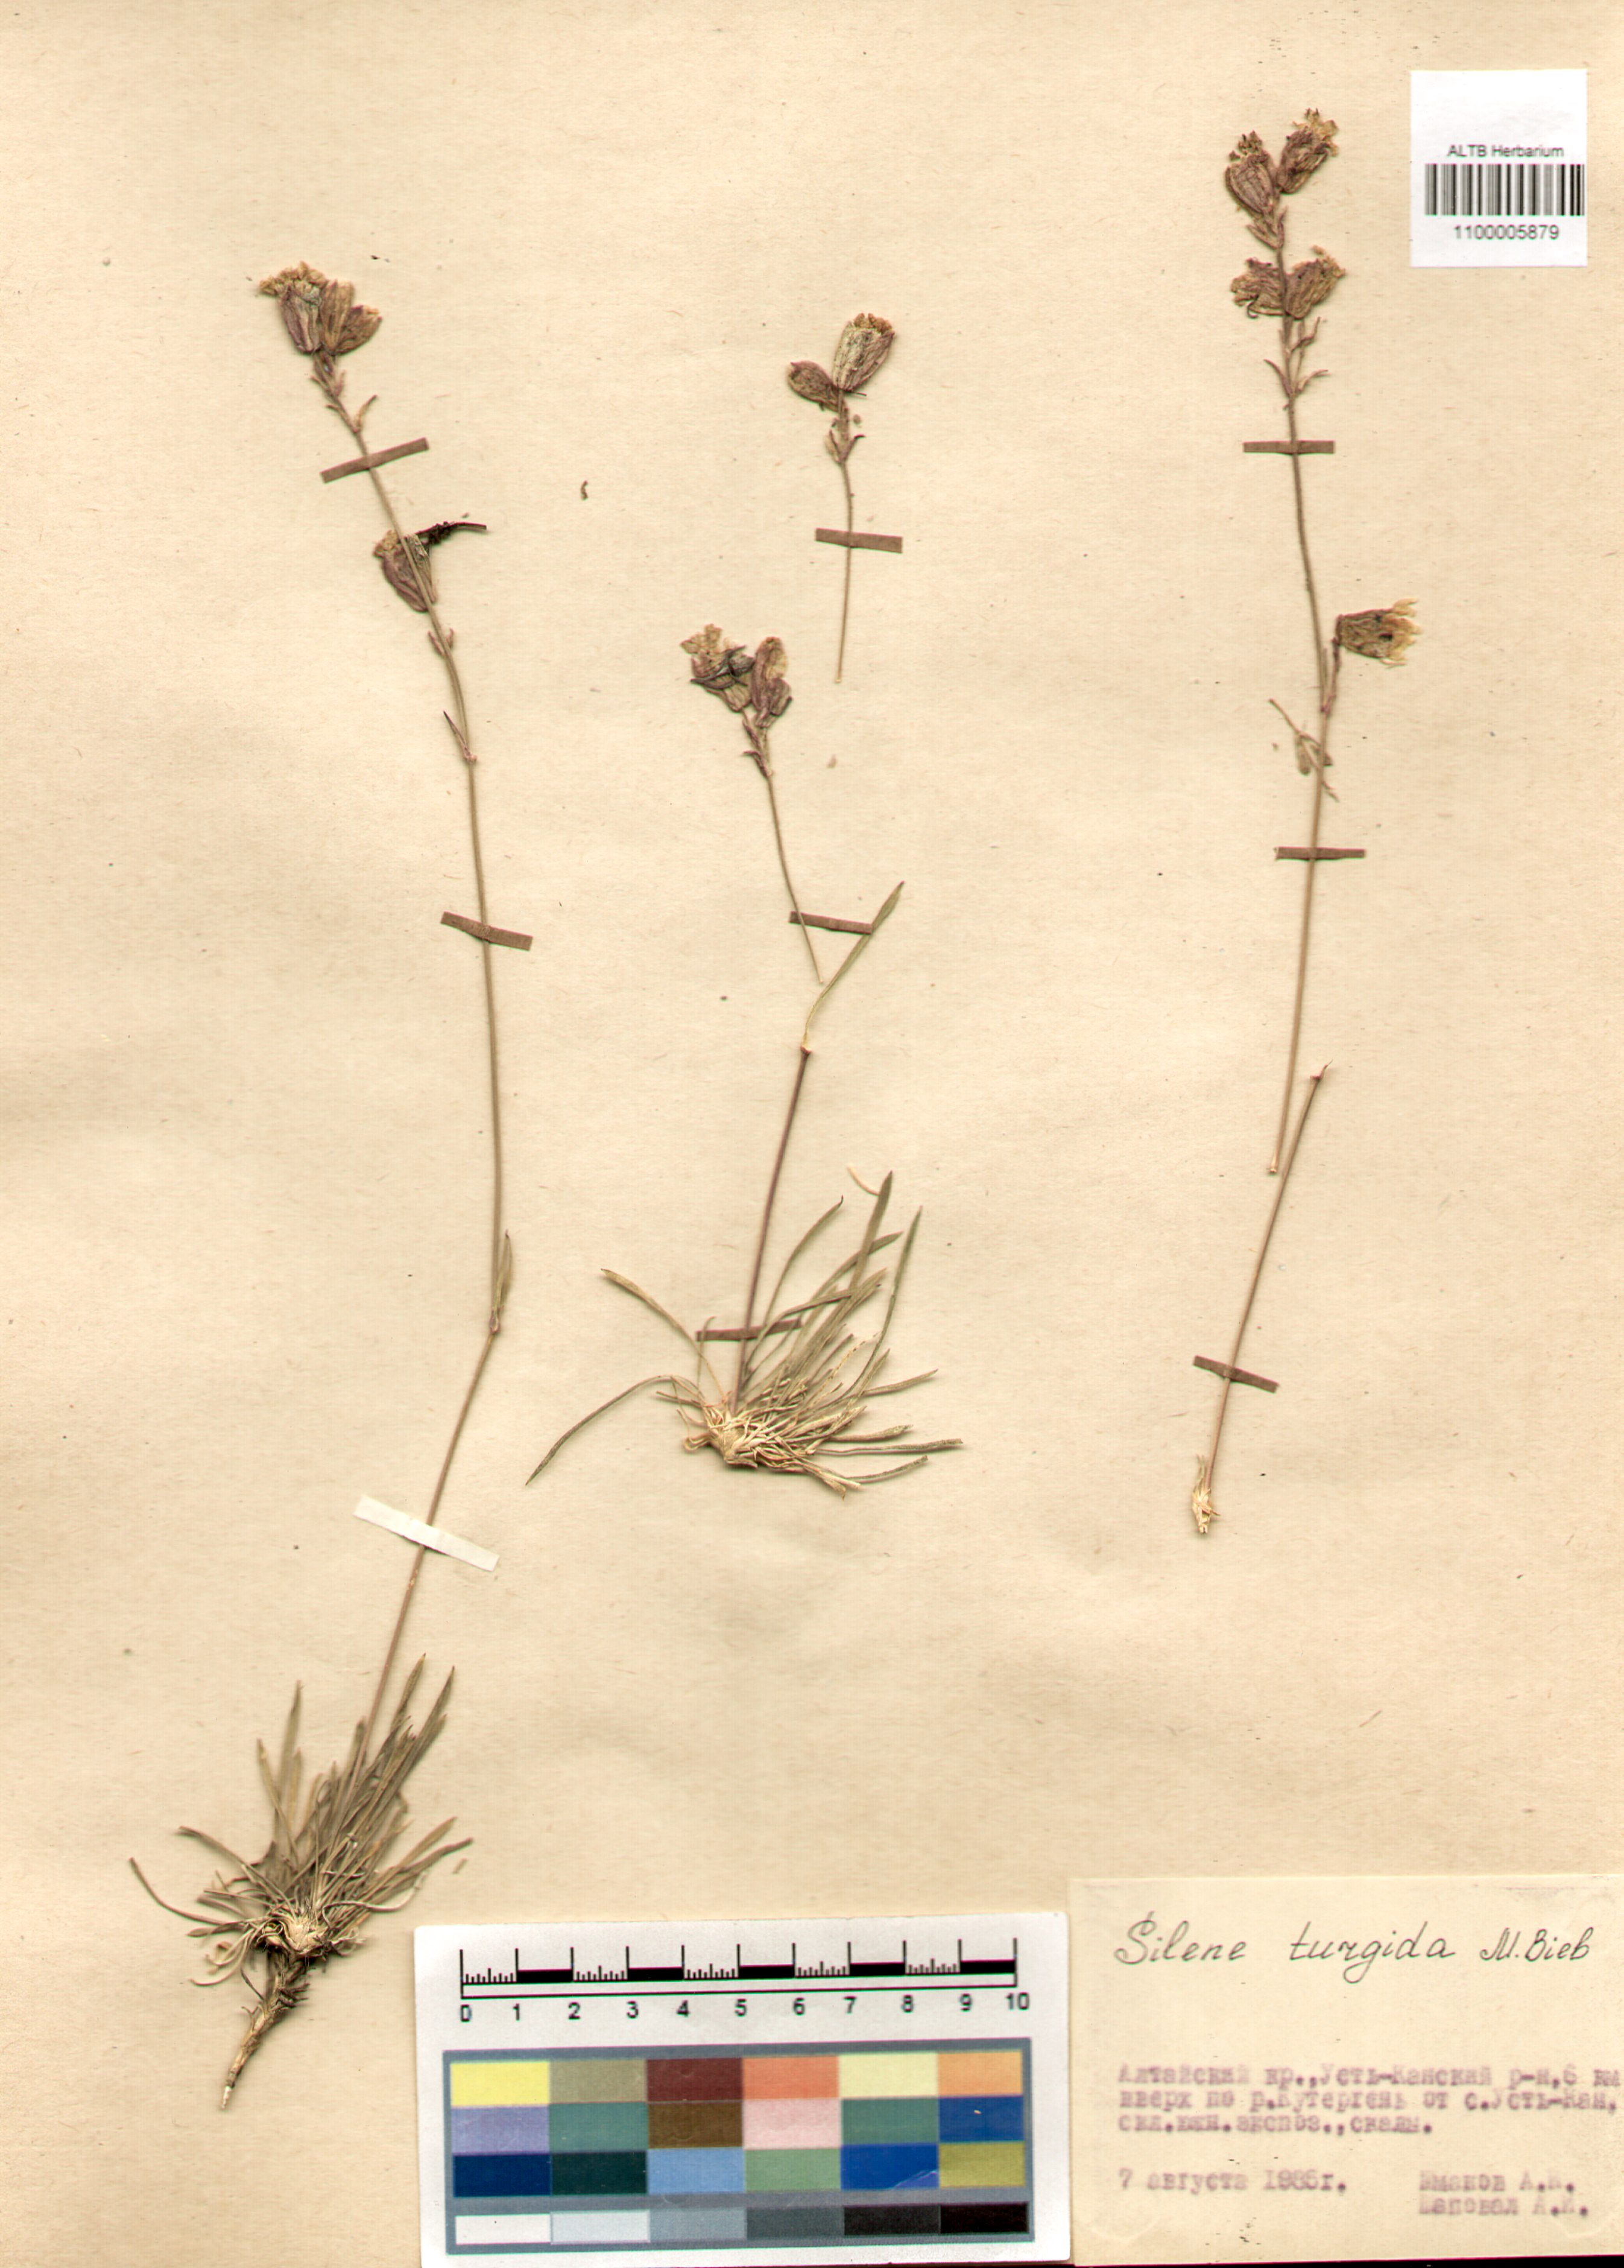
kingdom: Plantae
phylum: Tracheophyta
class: Magnoliopsida
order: Caryophyllales
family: Caryophyllaceae
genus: Silene
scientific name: Silene turgida
